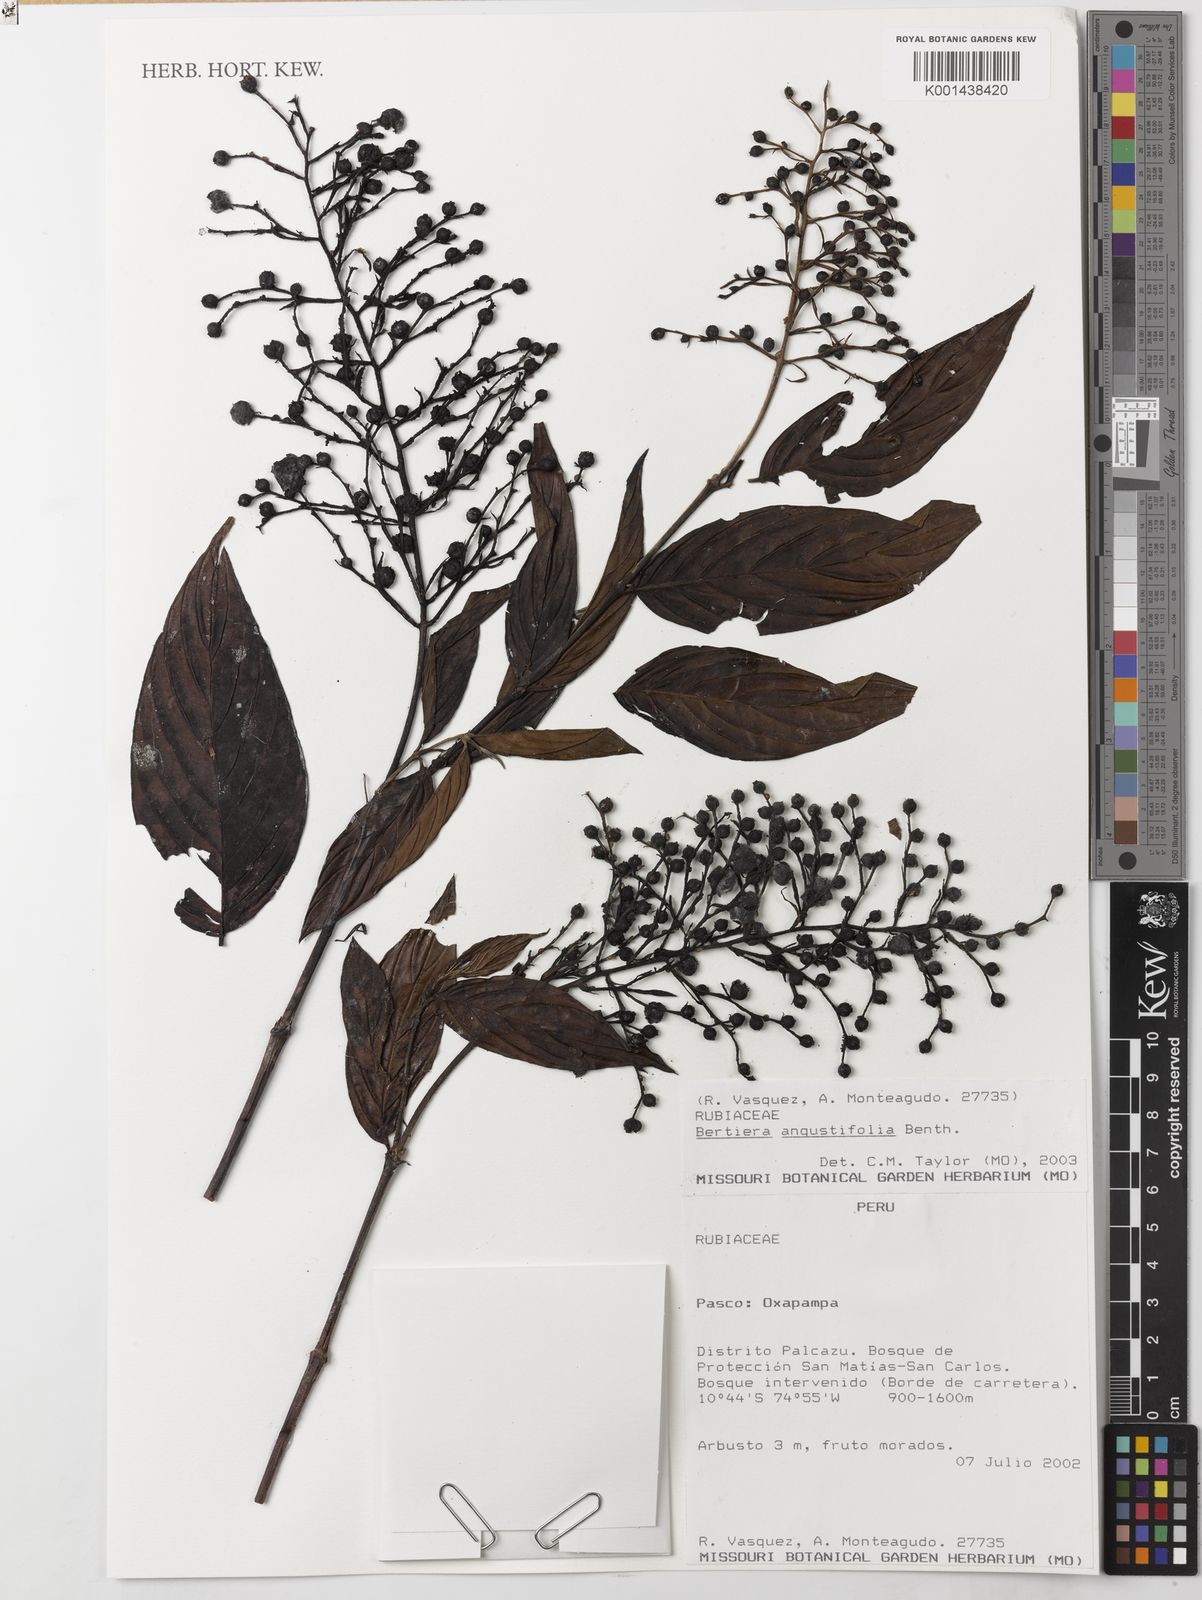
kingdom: Plantae
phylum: Tracheophyta
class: Magnoliopsida
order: Gentianales
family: Rubiaceae
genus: Bertiera
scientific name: Bertiera angustifolia
